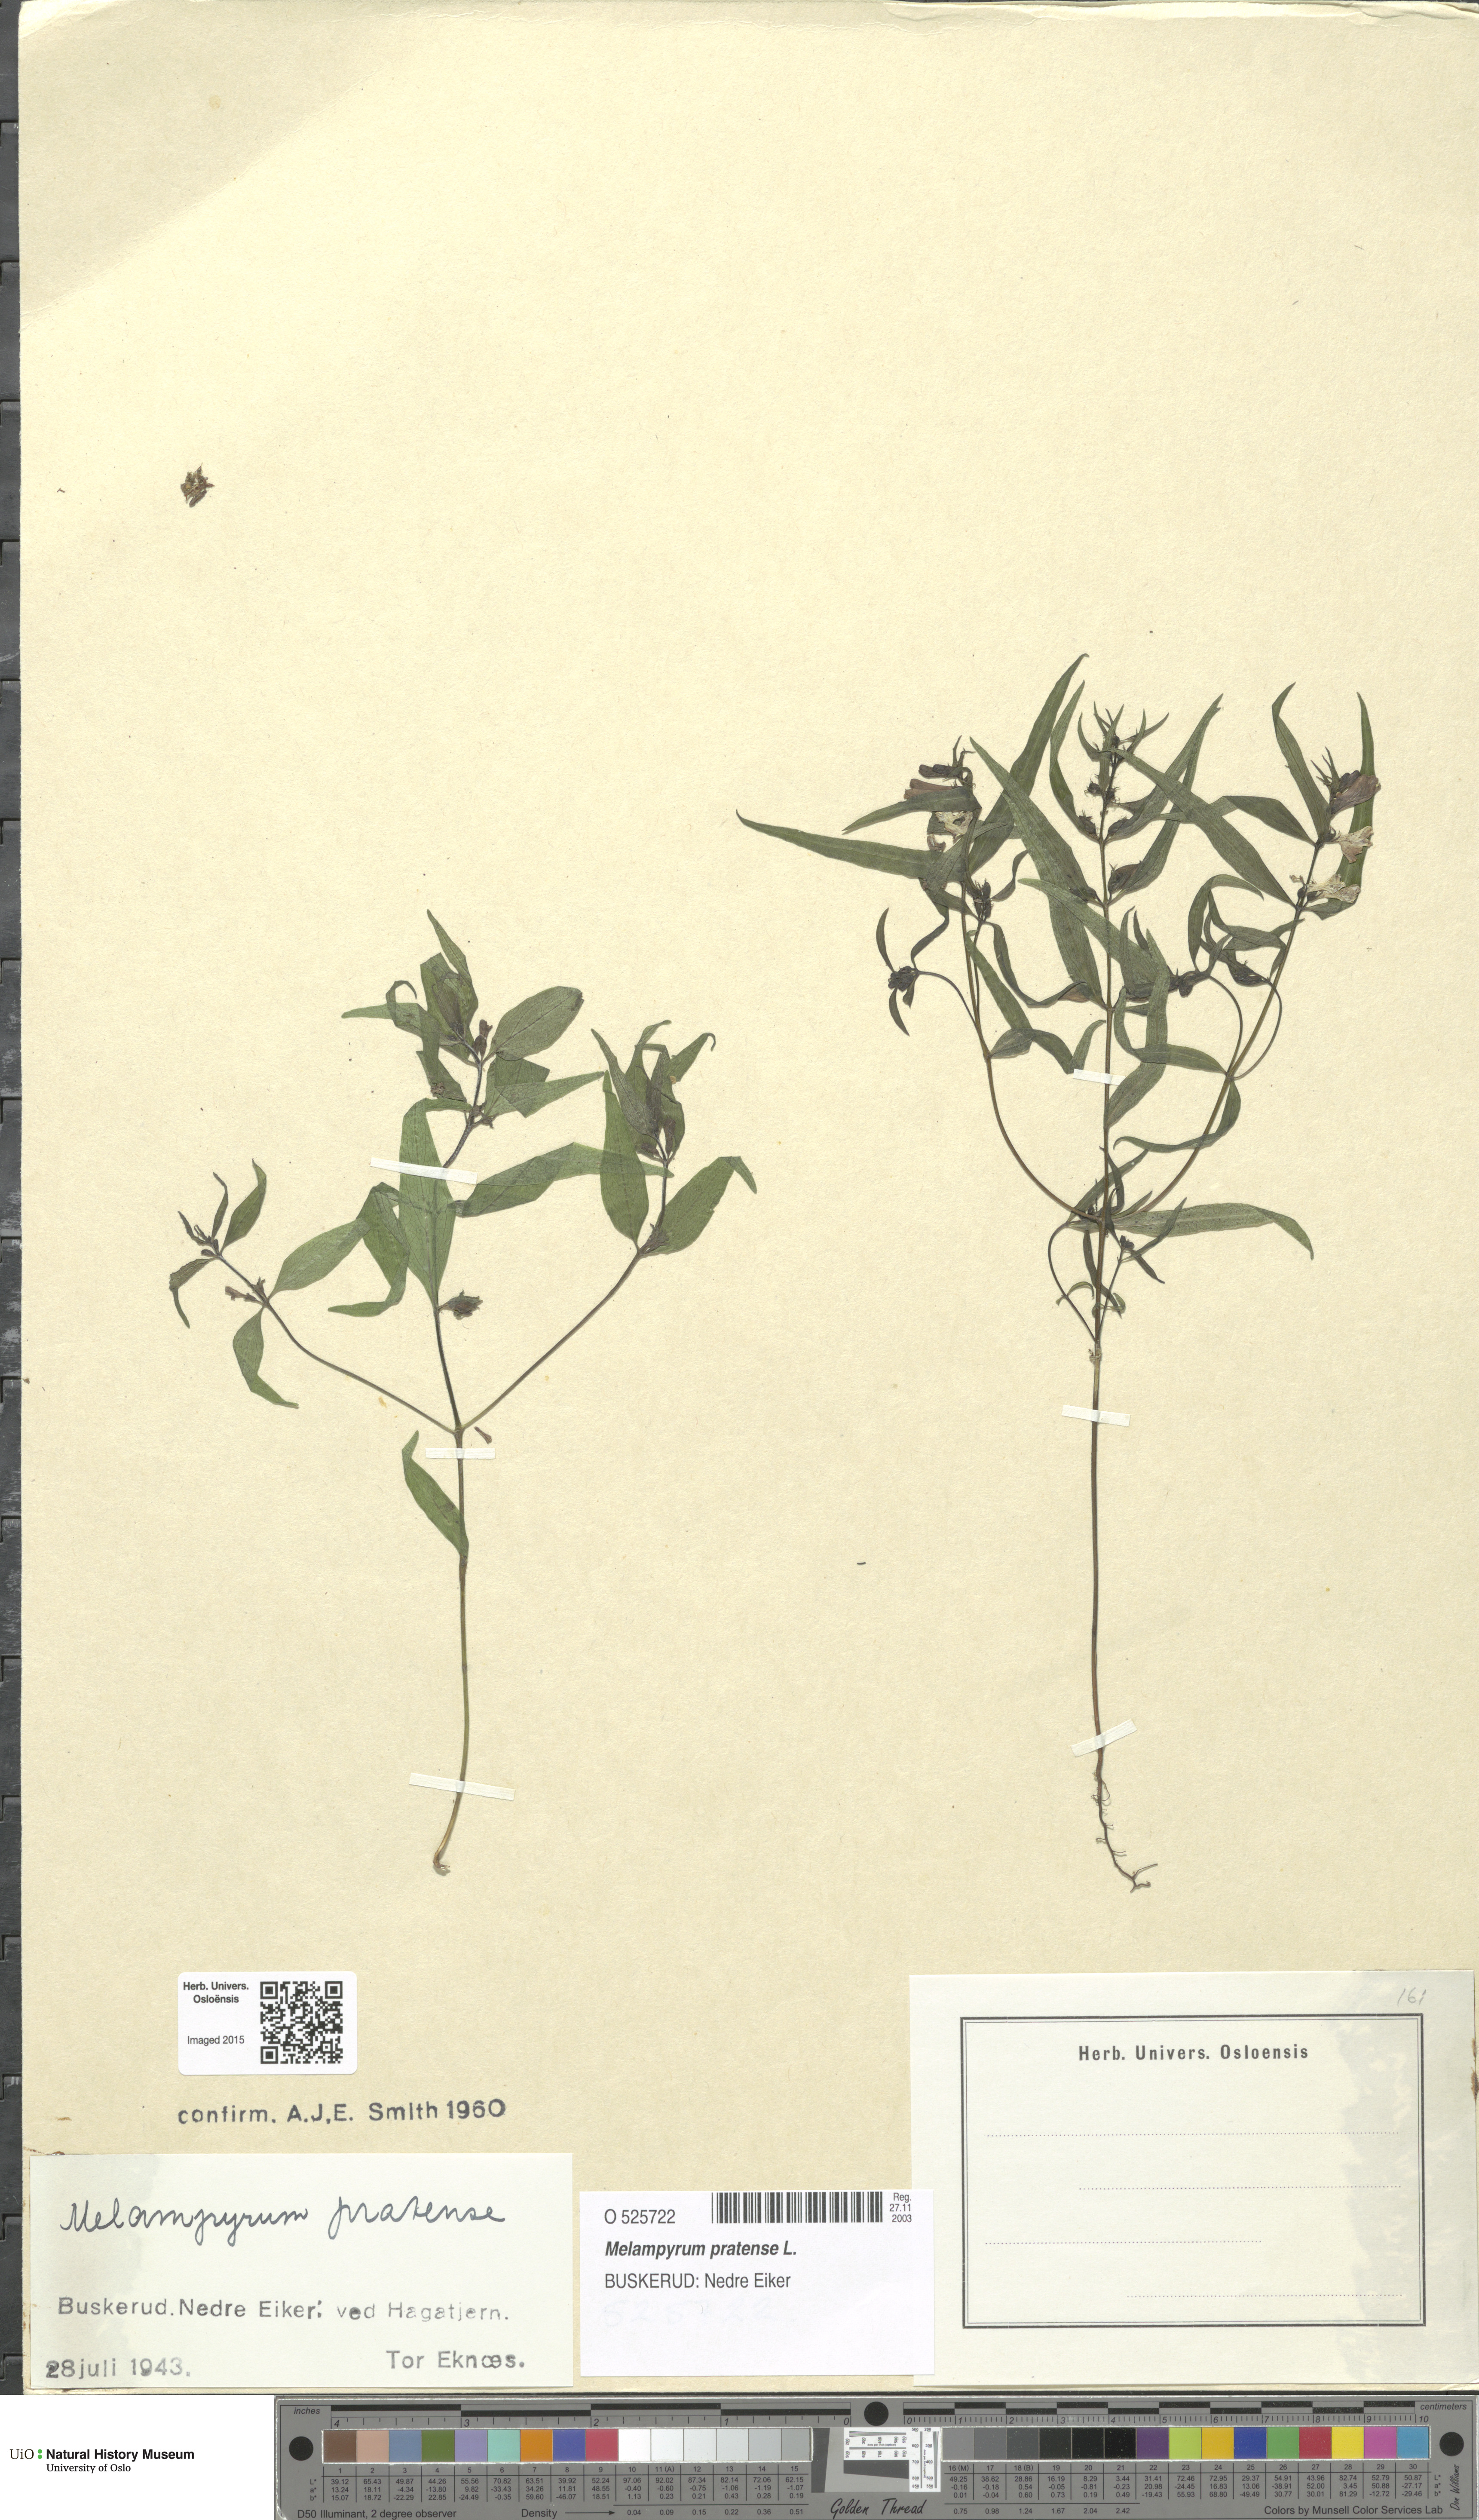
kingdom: Plantae
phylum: Tracheophyta
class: Magnoliopsida
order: Lamiales
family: Orobanchaceae
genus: Melampyrum
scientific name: Melampyrum pratense
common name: Common cow-wheat
